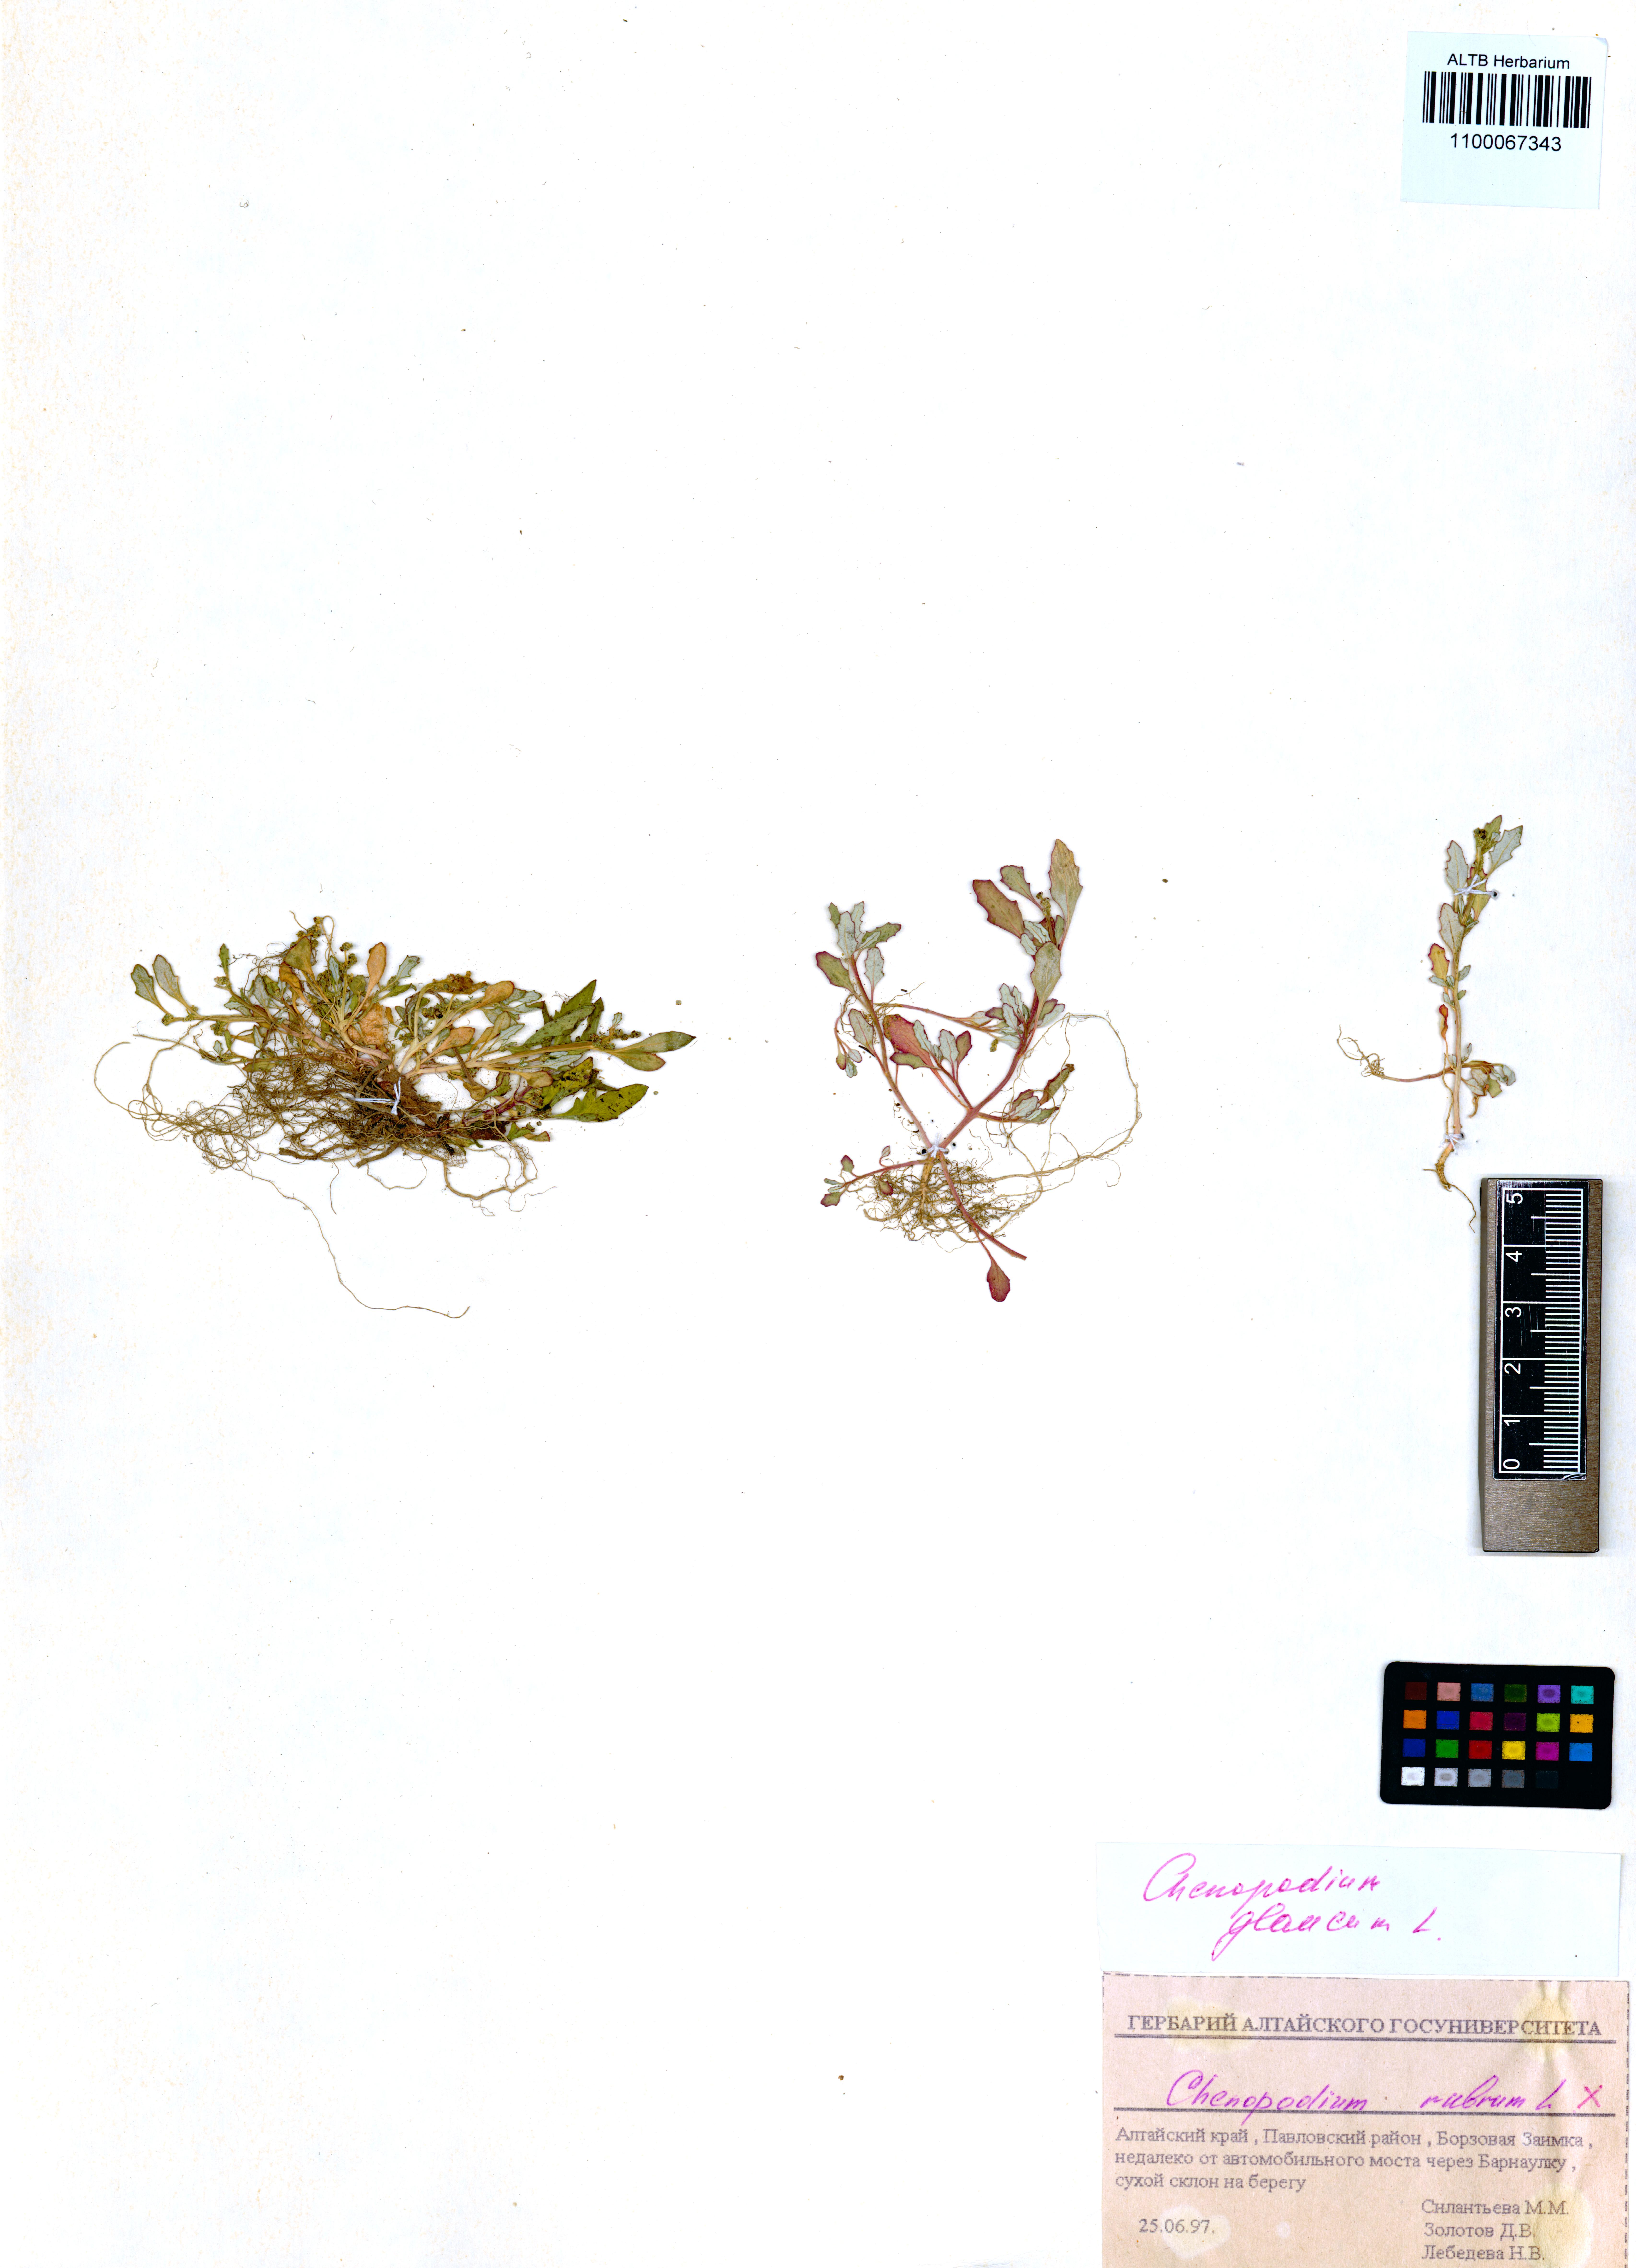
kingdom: Plantae
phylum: Tracheophyta
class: Magnoliopsida
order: Caryophyllales
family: Amaranthaceae
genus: Oxybasis
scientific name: Oxybasis glauca
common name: Glaucous goosefoot
